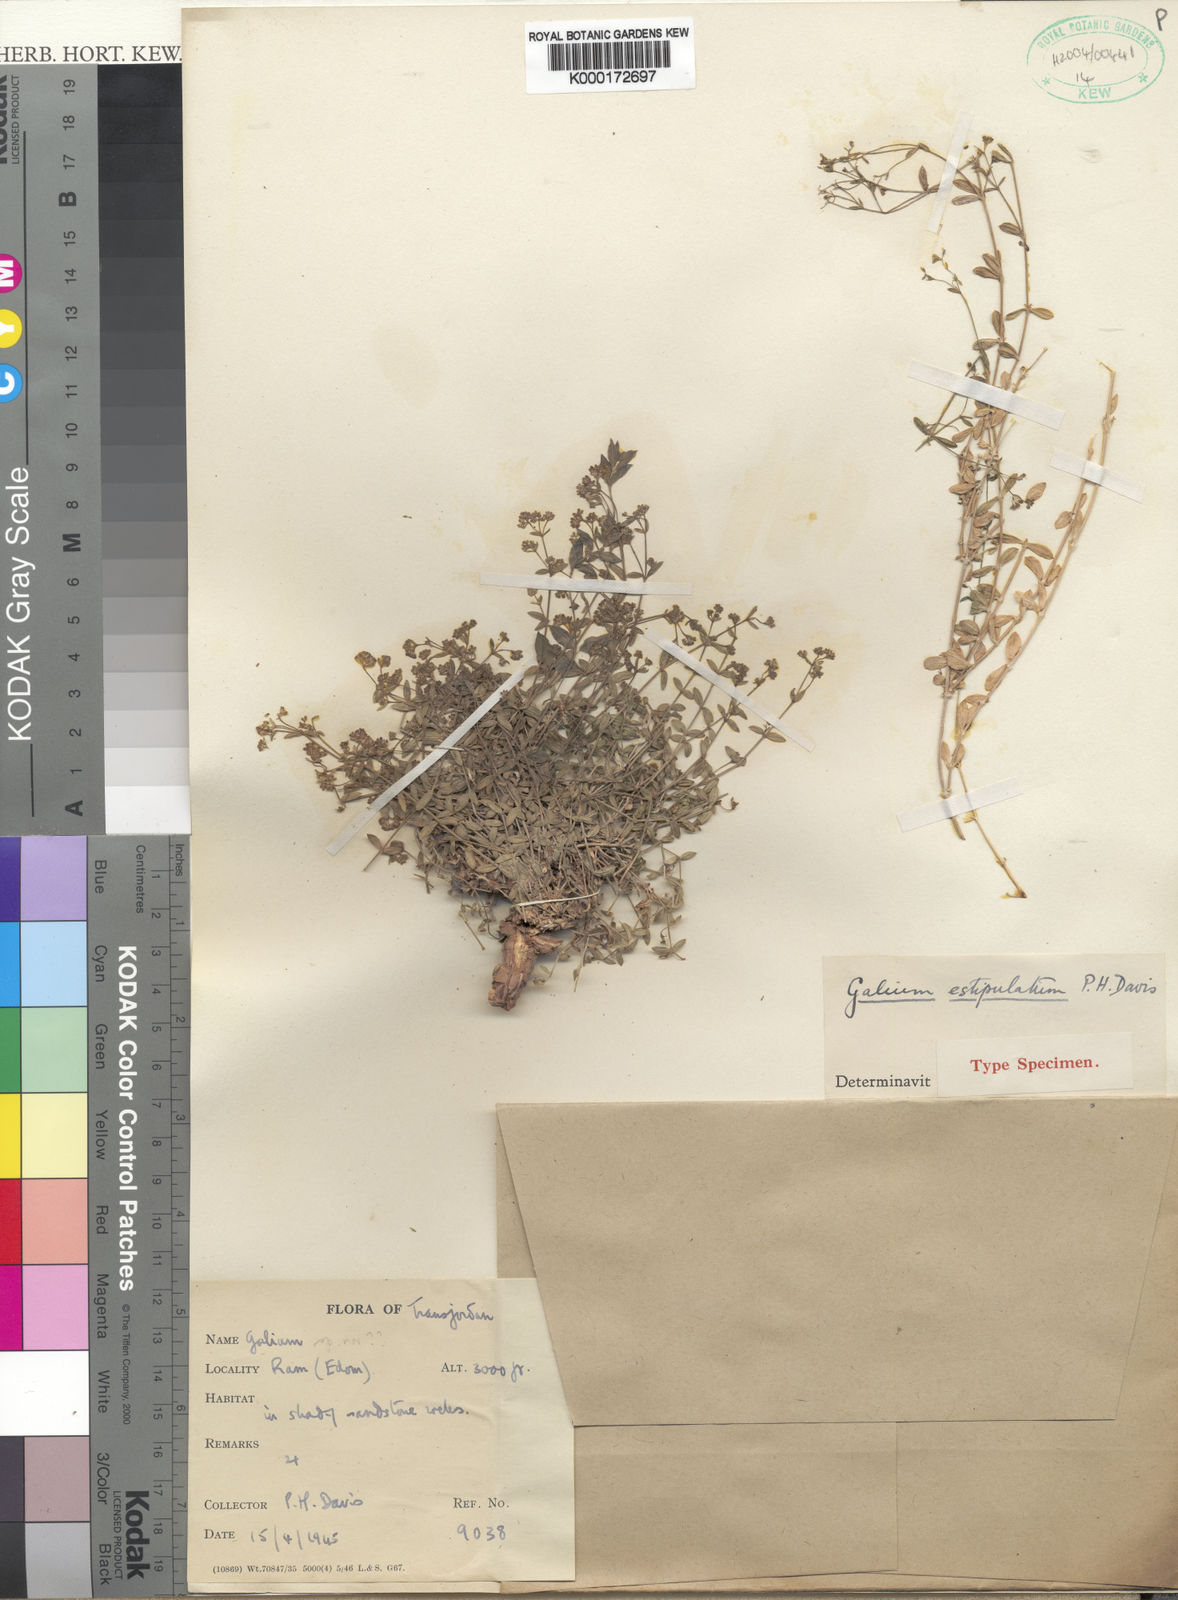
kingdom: Plantae
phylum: Tracheophyta
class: Magnoliopsida
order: Gentianales
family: Rubiaceae
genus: Galium
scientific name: Galium
